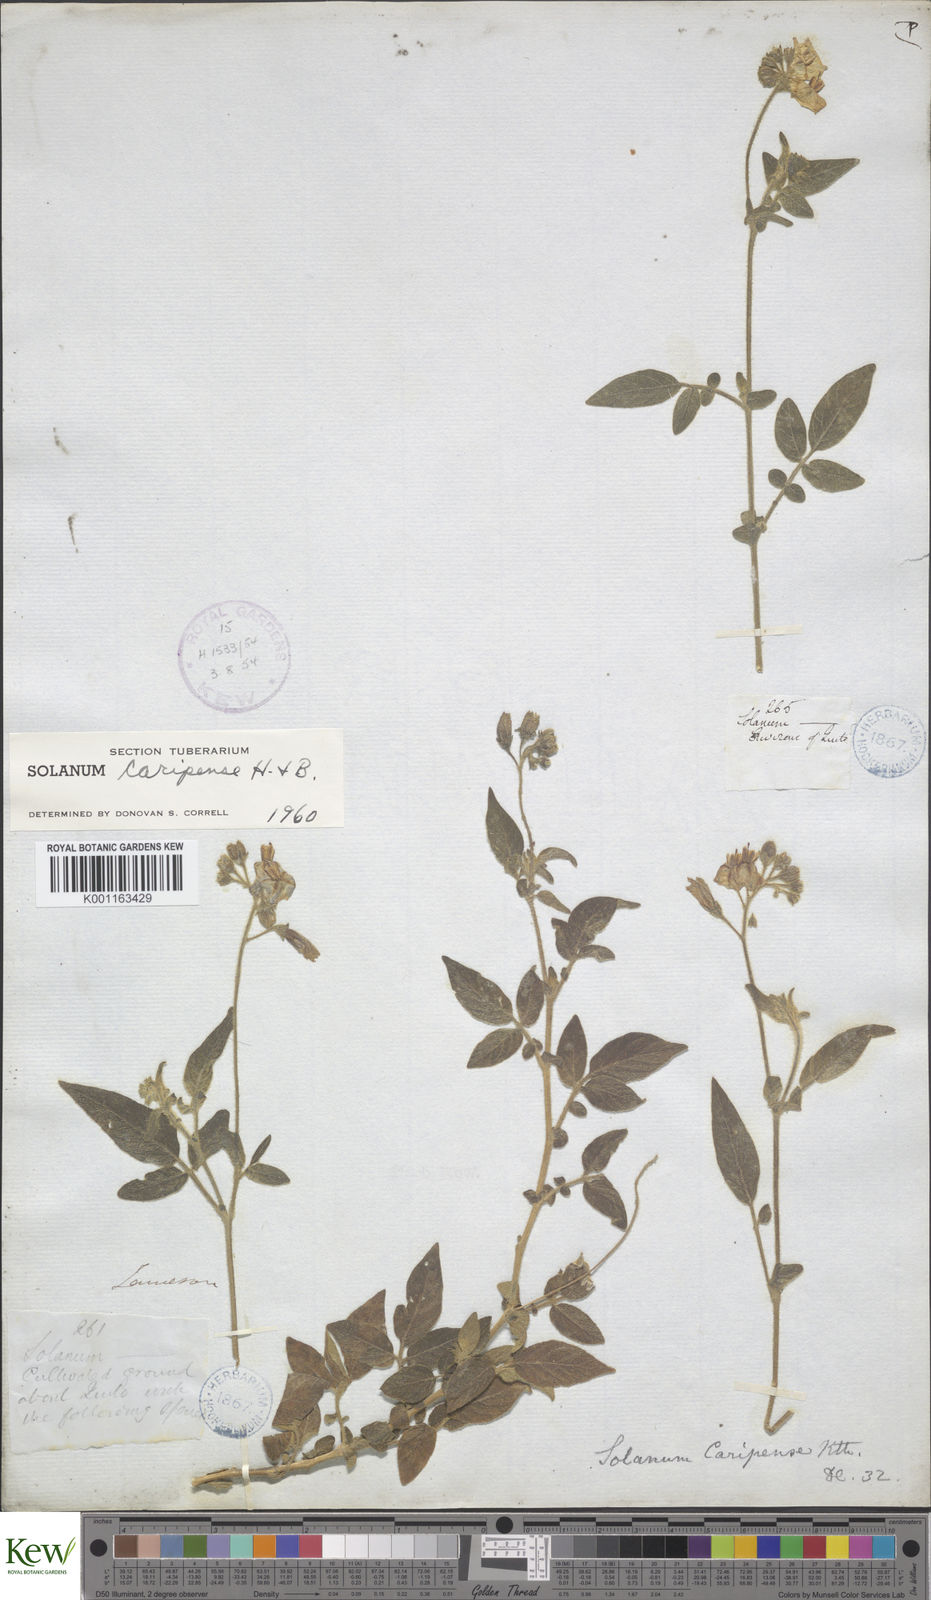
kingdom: Plantae
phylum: Tracheophyta
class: Magnoliopsida
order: Solanales
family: Solanaceae
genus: Solanum
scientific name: Solanum caripense
